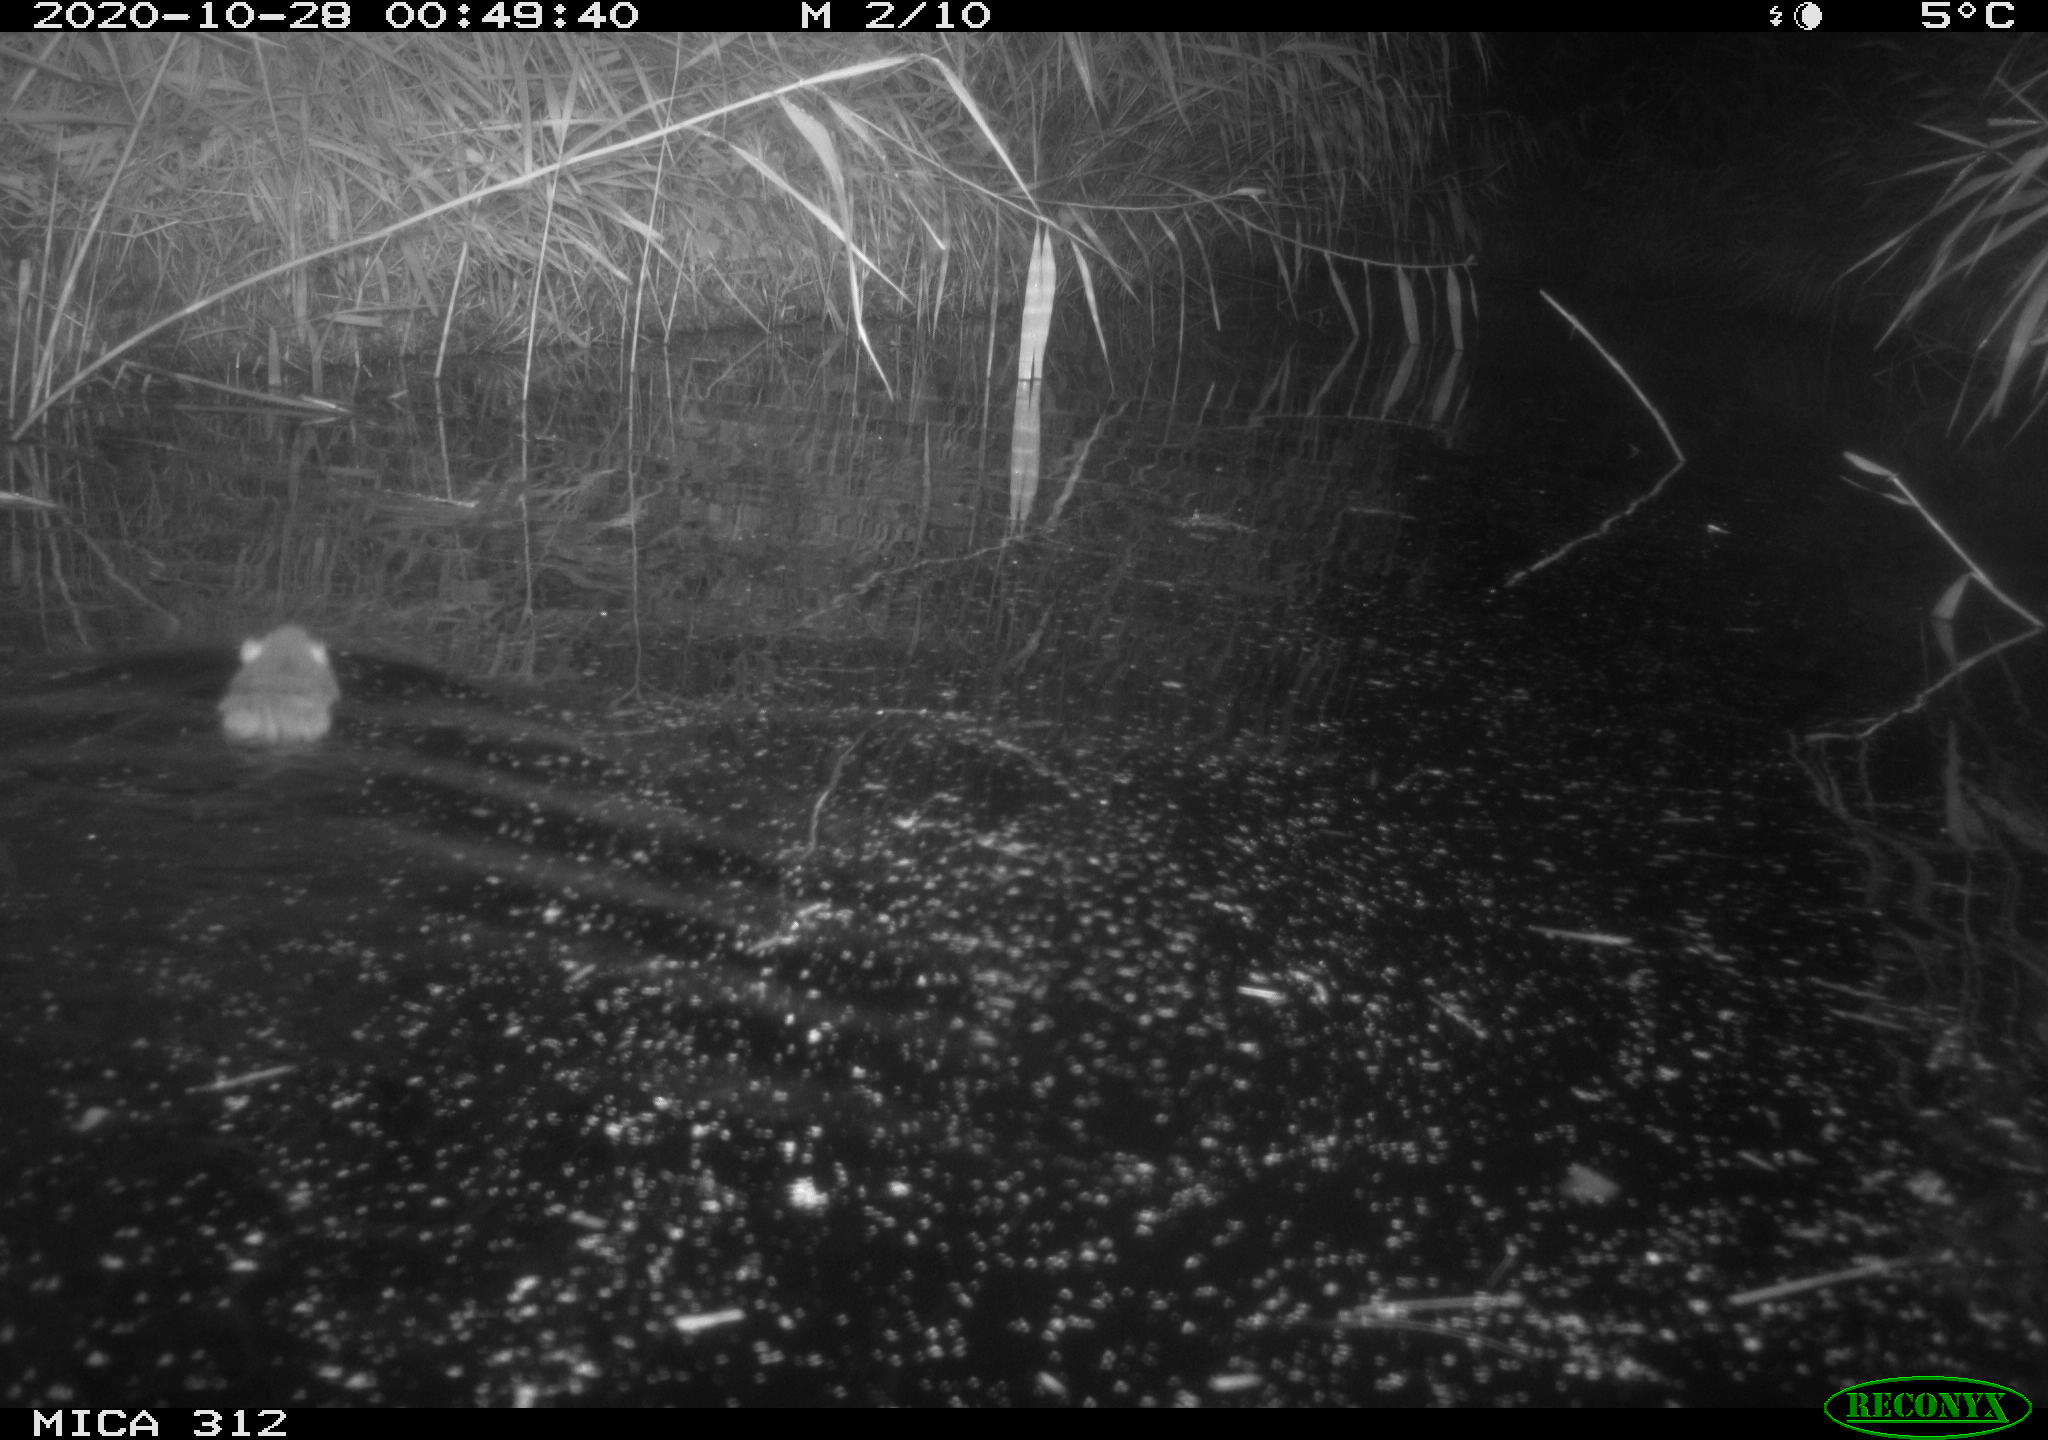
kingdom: Animalia
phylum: Chordata
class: Mammalia
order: Rodentia
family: Muridae
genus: Rattus
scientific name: Rattus norvegicus
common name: Brown rat
